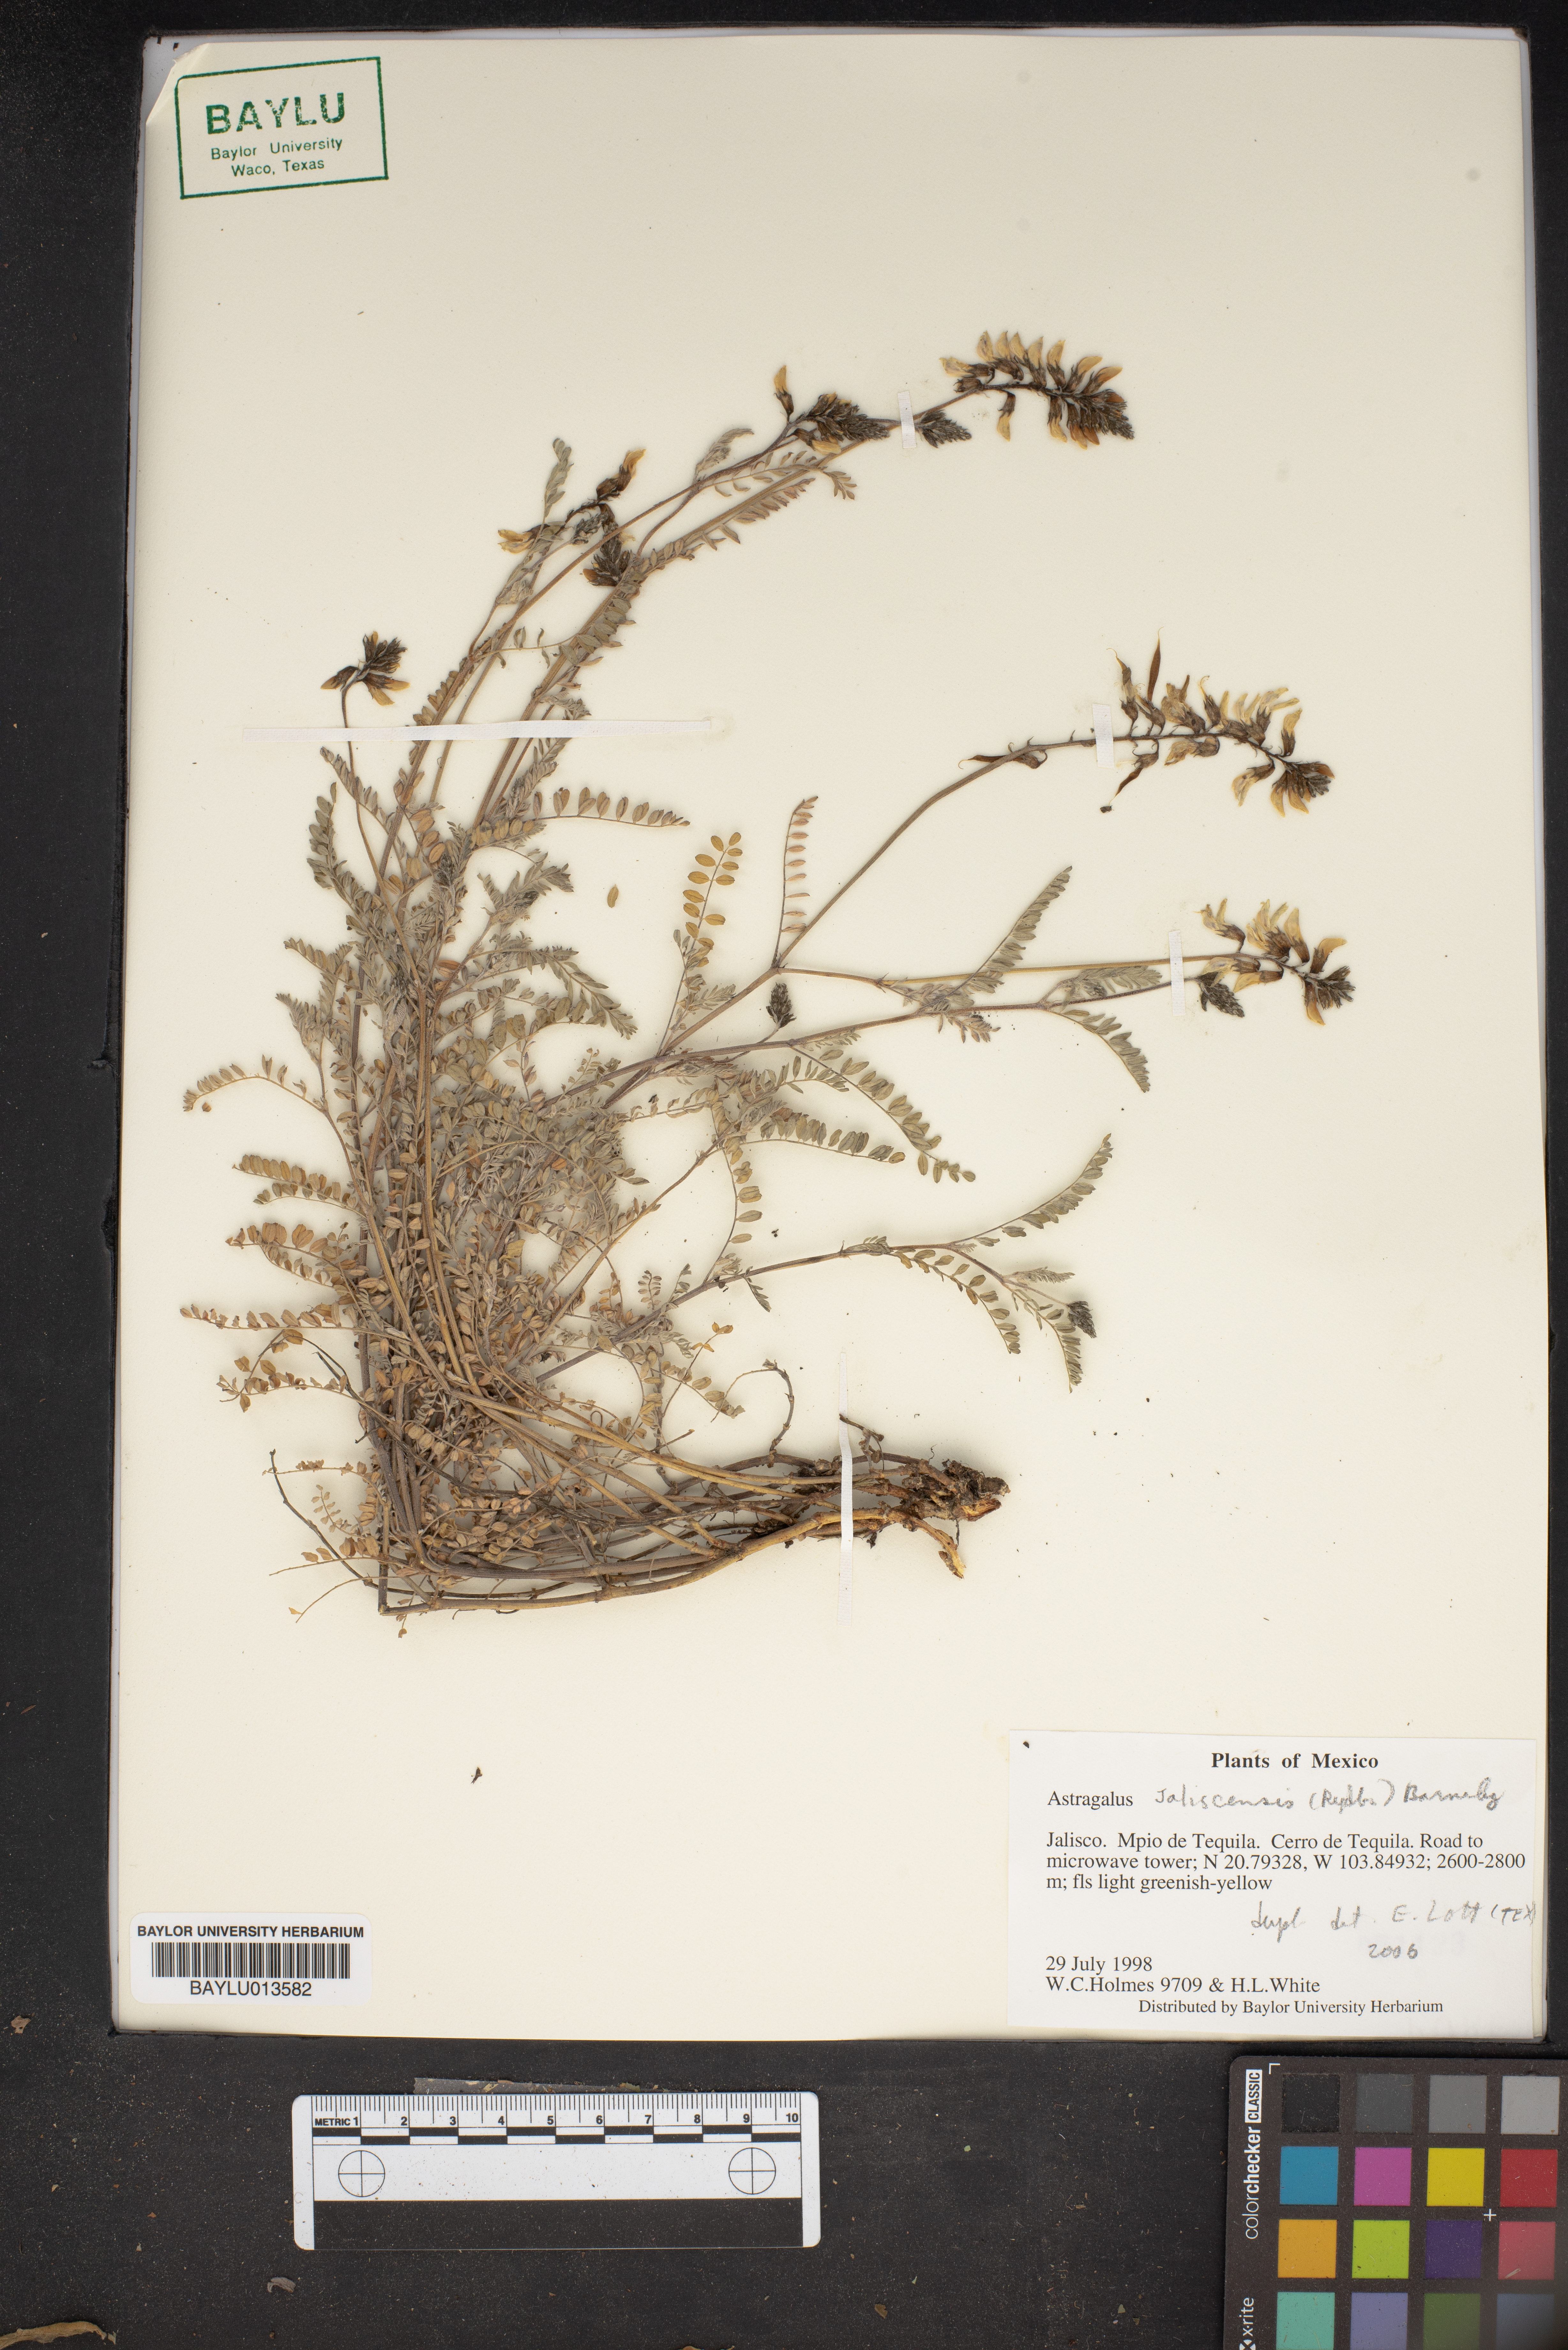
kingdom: Plantae
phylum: Tracheophyta
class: Magnoliopsida
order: Fabales
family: Fabaceae
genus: Astragalus
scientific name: Astragalus jaliscensis
